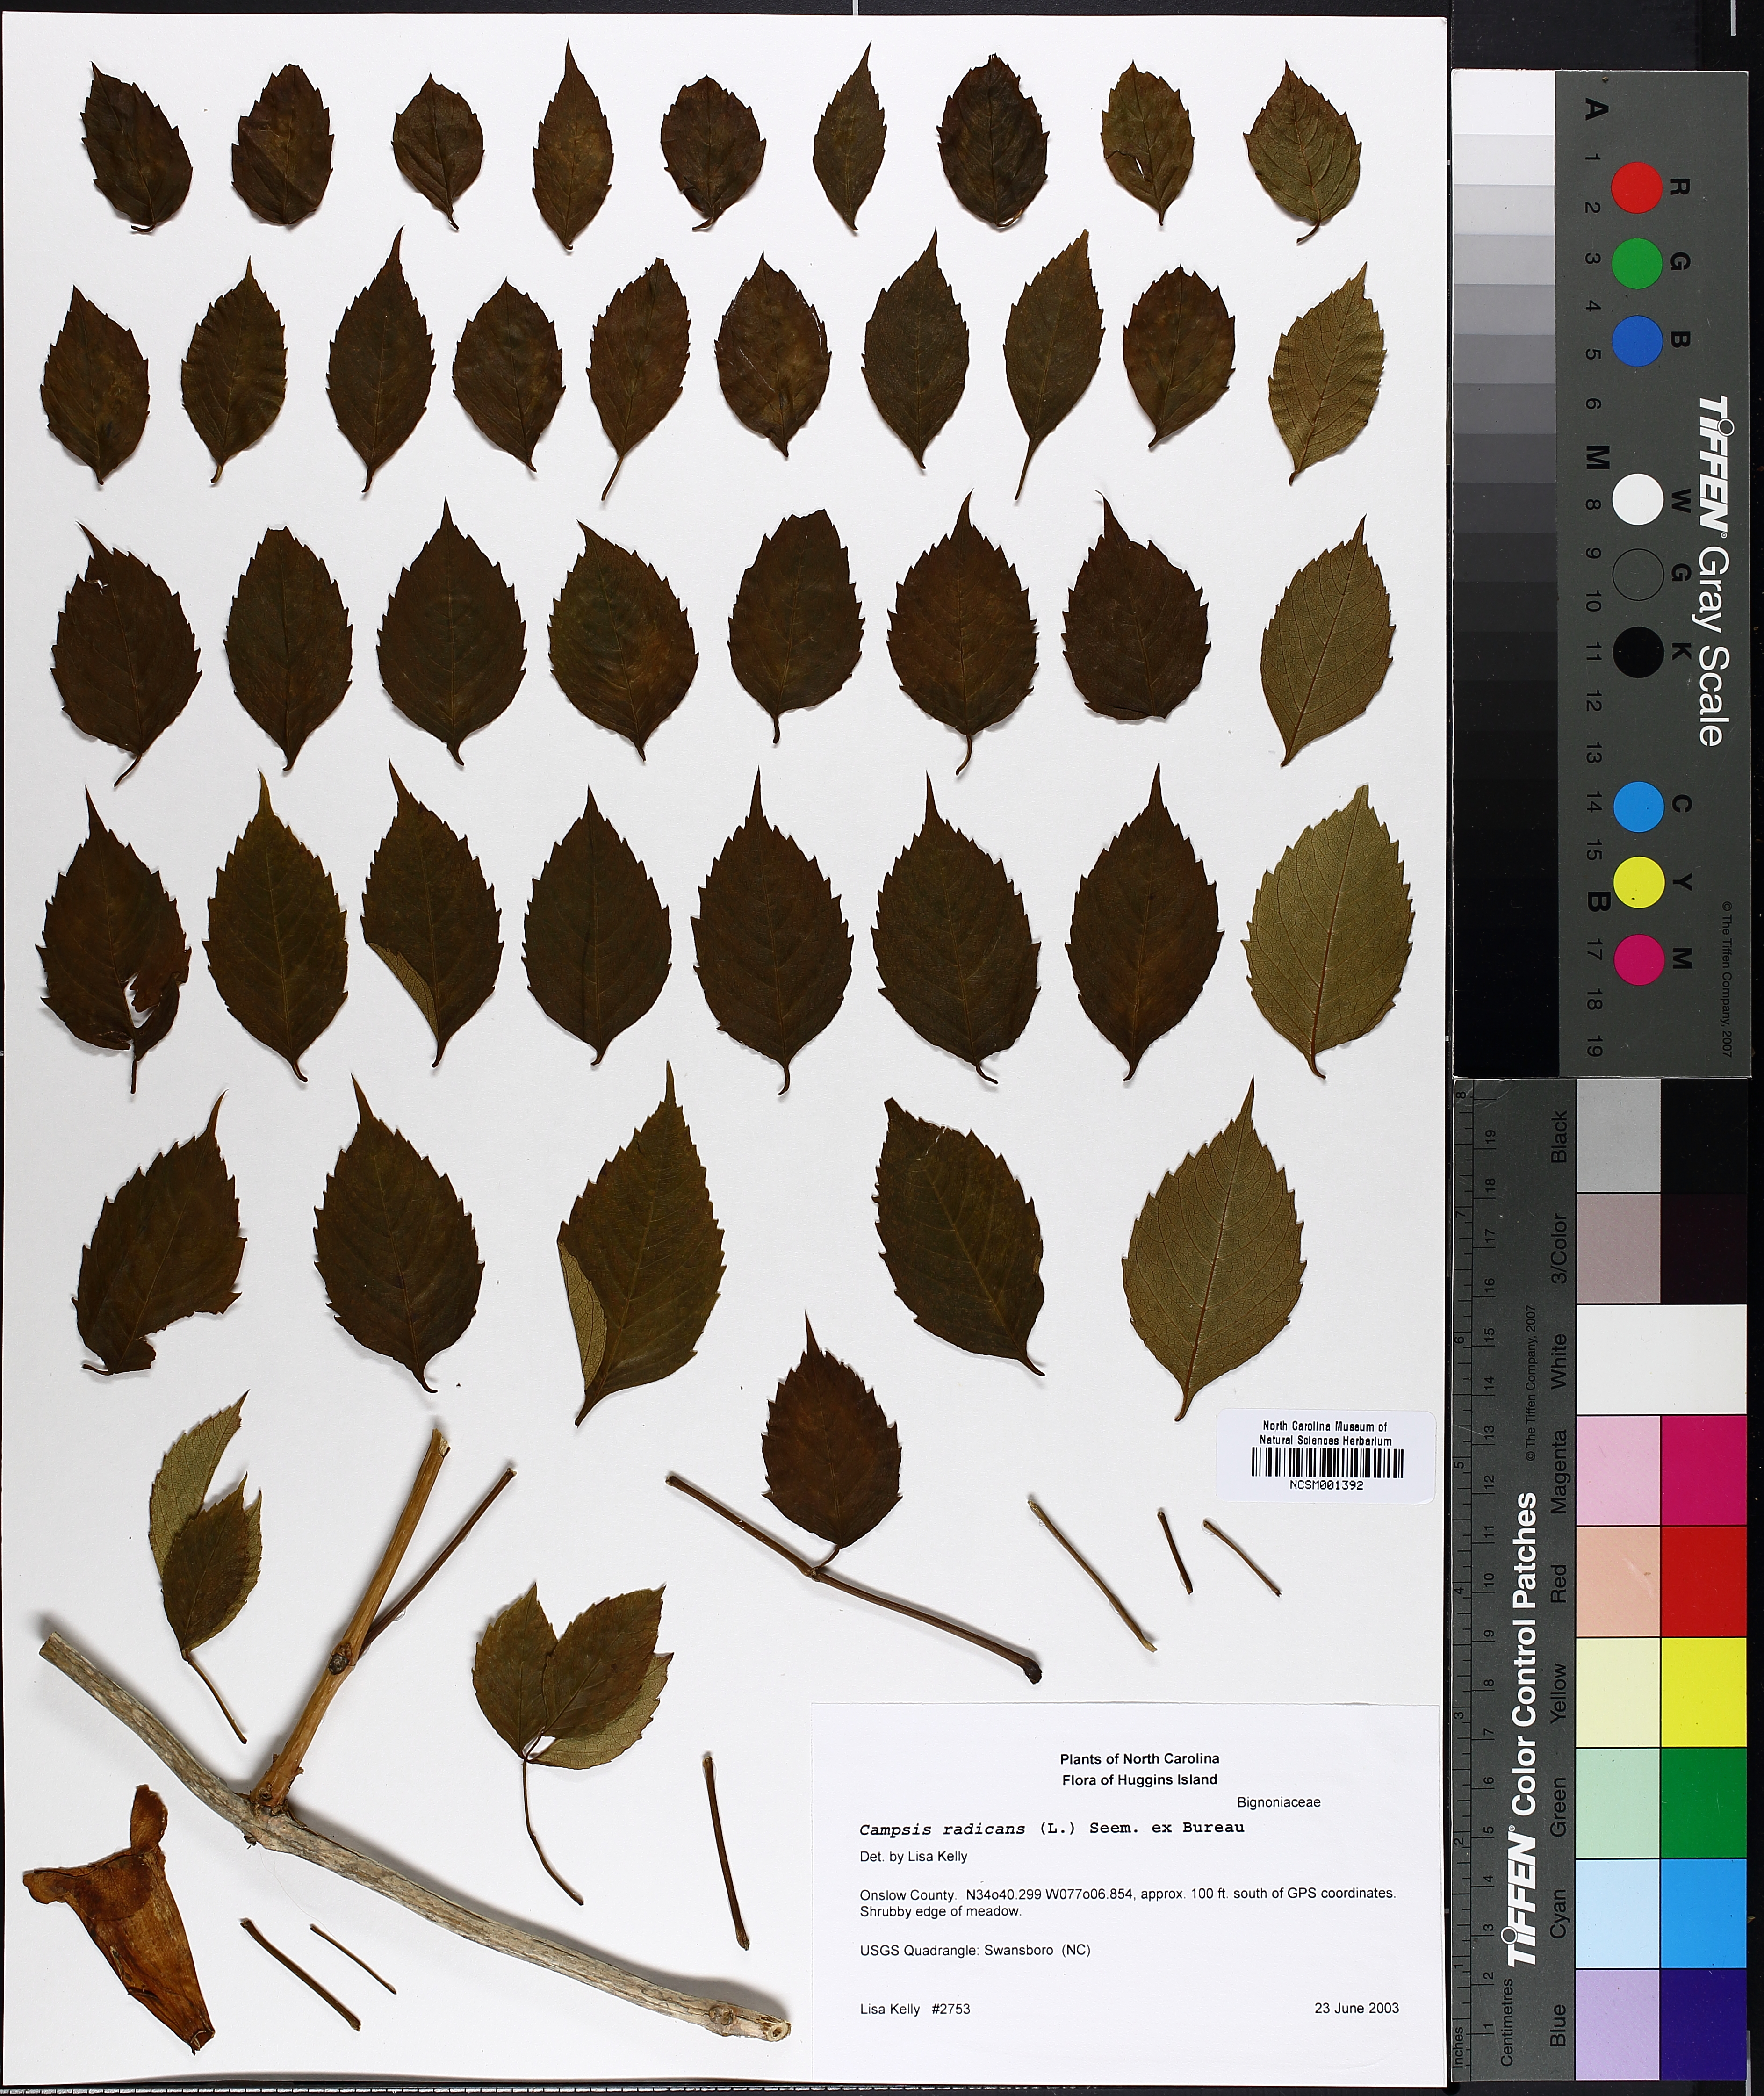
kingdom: Plantae
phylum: Tracheophyta
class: Magnoliopsida
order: Lamiales
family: Bignoniaceae
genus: Campsis
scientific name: Campsis radicans
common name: Trumpet-creeper
